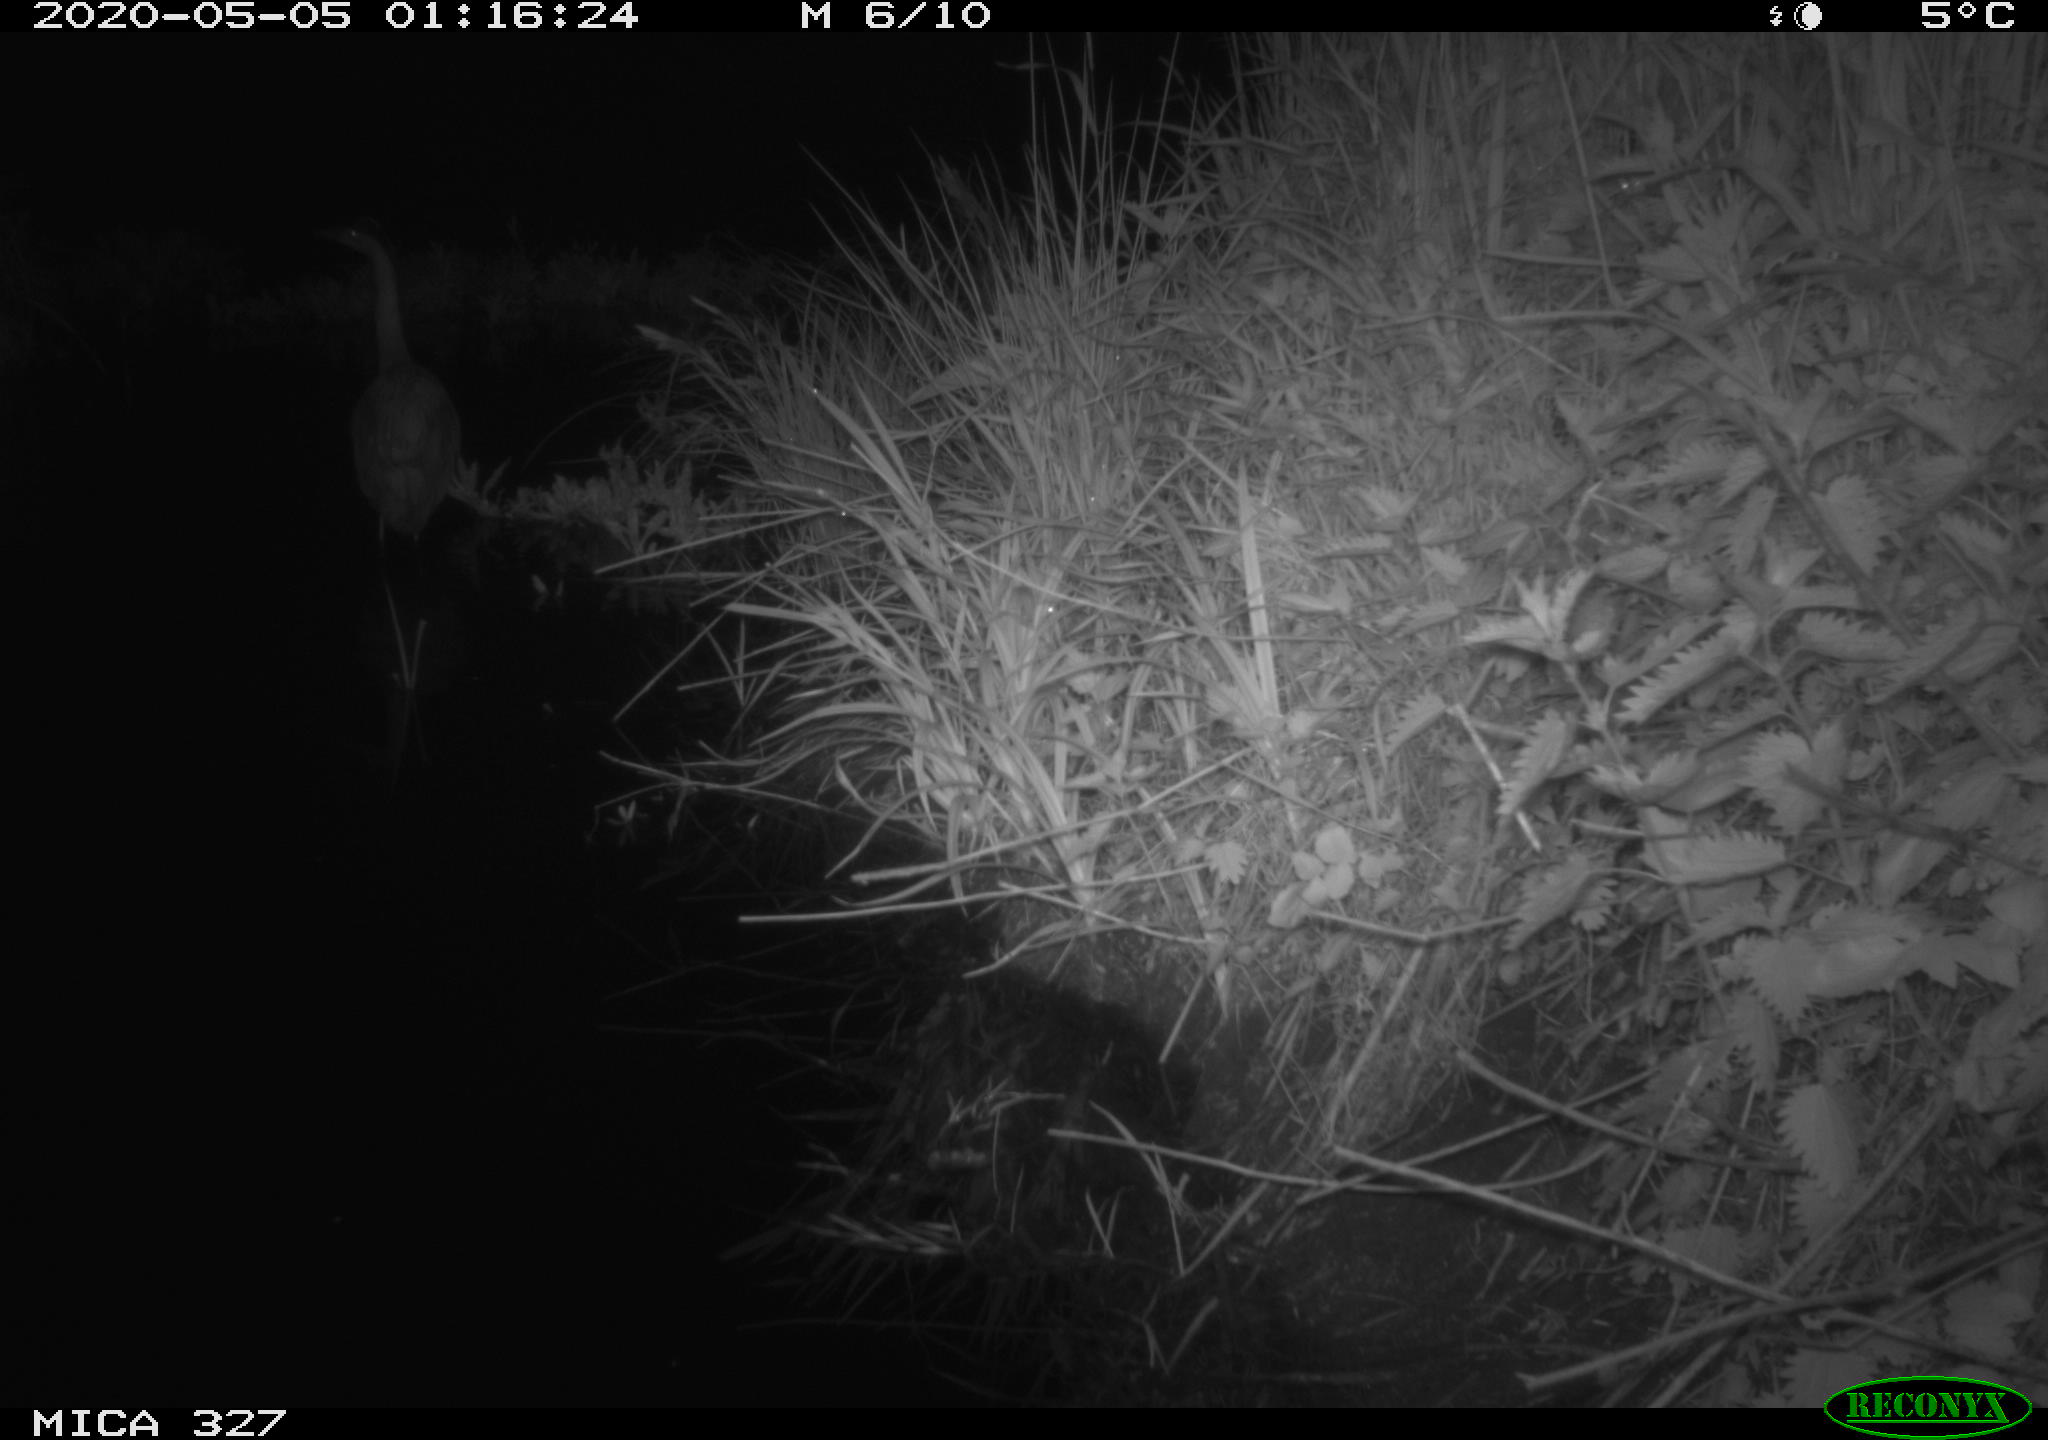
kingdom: Animalia
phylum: Chordata
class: Aves
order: Pelecaniformes
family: Ardeidae
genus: Ardea
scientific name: Ardea cinerea
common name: Grey heron
